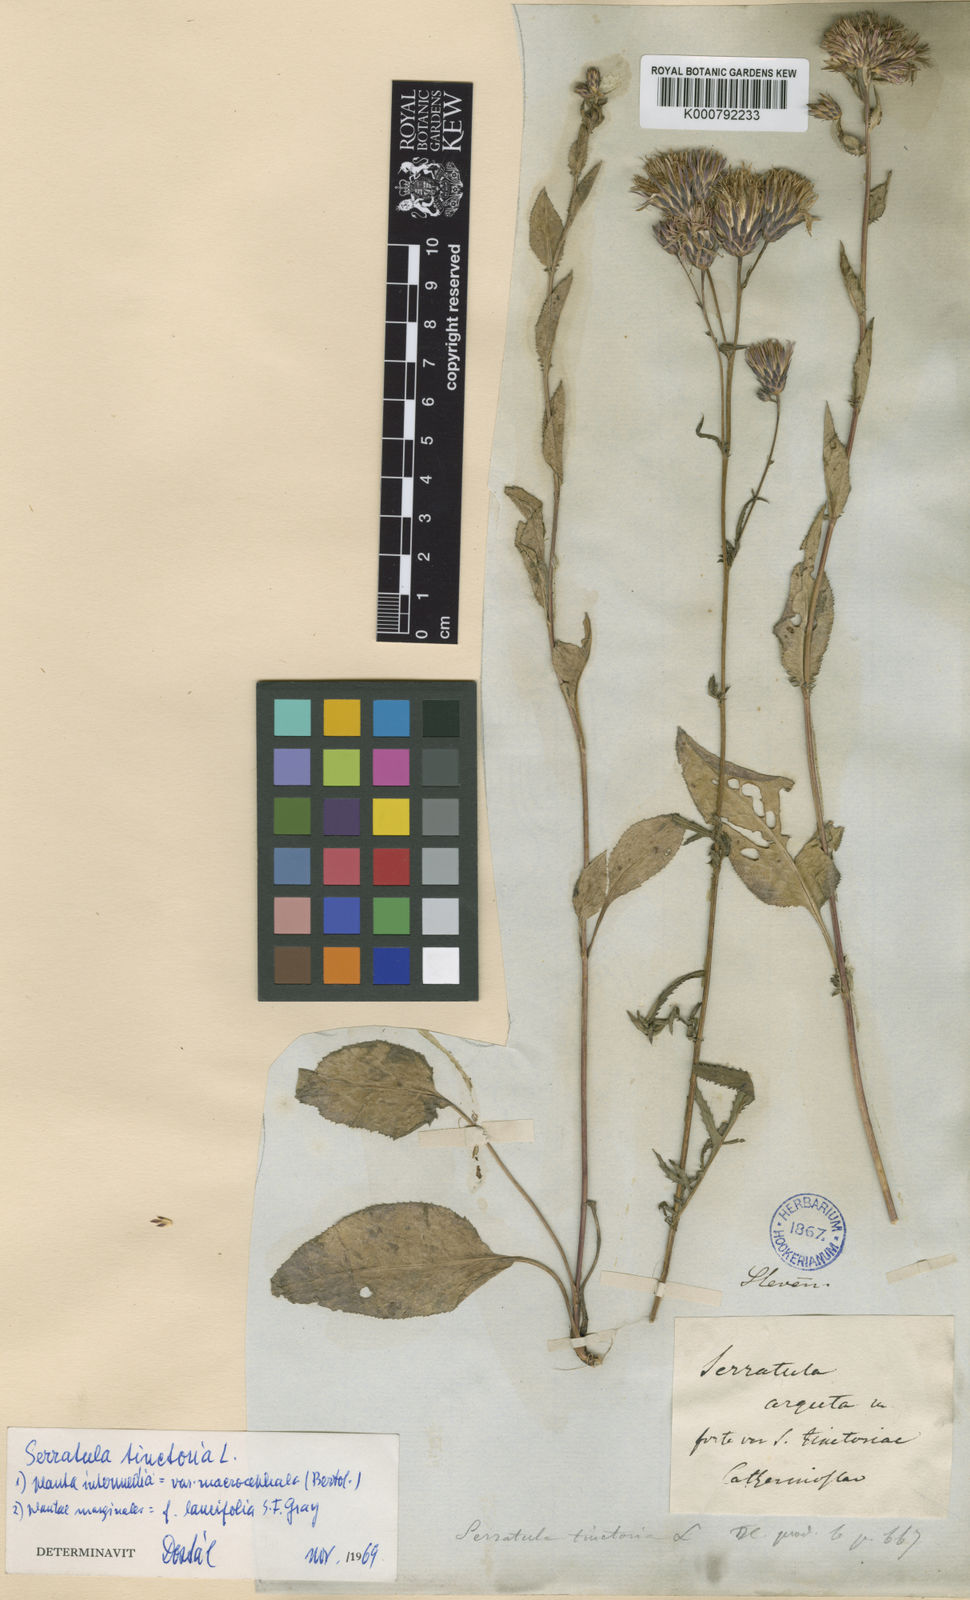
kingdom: Plantae
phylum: Tracheophyta
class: Magnoliopsida
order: Asterales
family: Asteraceae
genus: Serratula
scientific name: Serratula tinctoria
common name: Saw-wort
